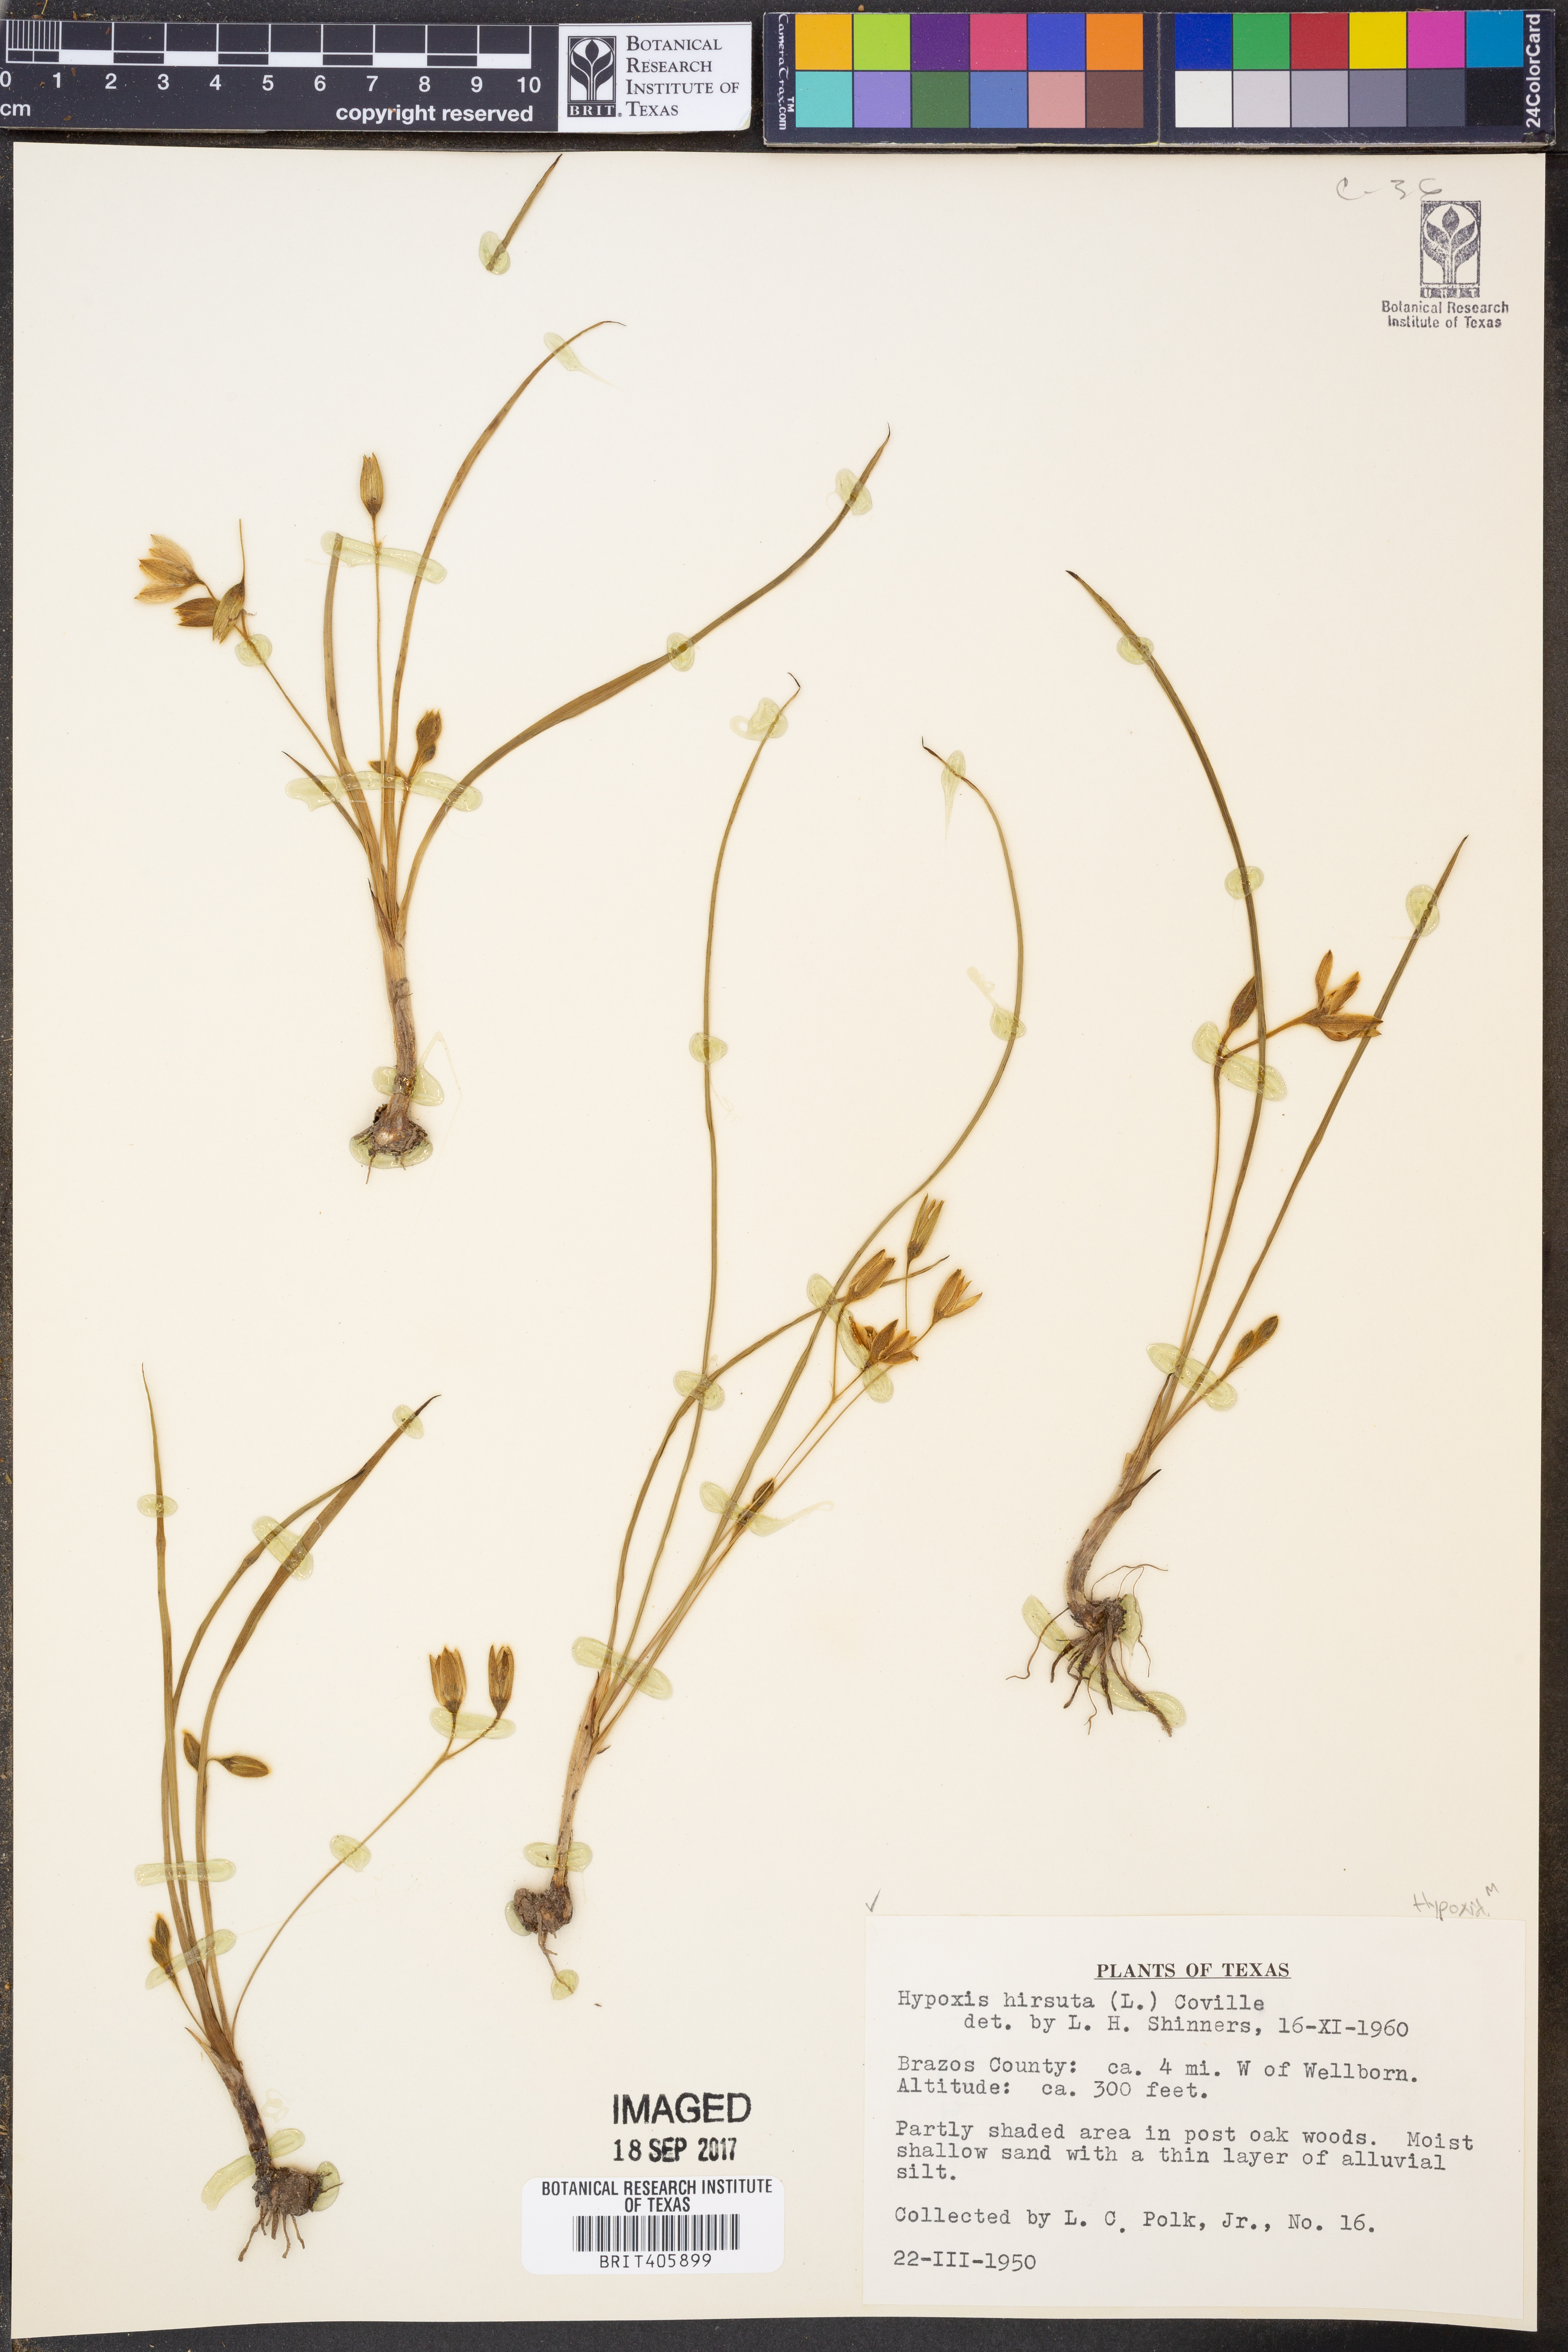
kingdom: Plantae
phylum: Tracheophyta
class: Liliopsida
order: Asparagales
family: Hypoxidaceae
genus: Hypoxis
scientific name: Hypoxis hirsuta
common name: Common goldstar
